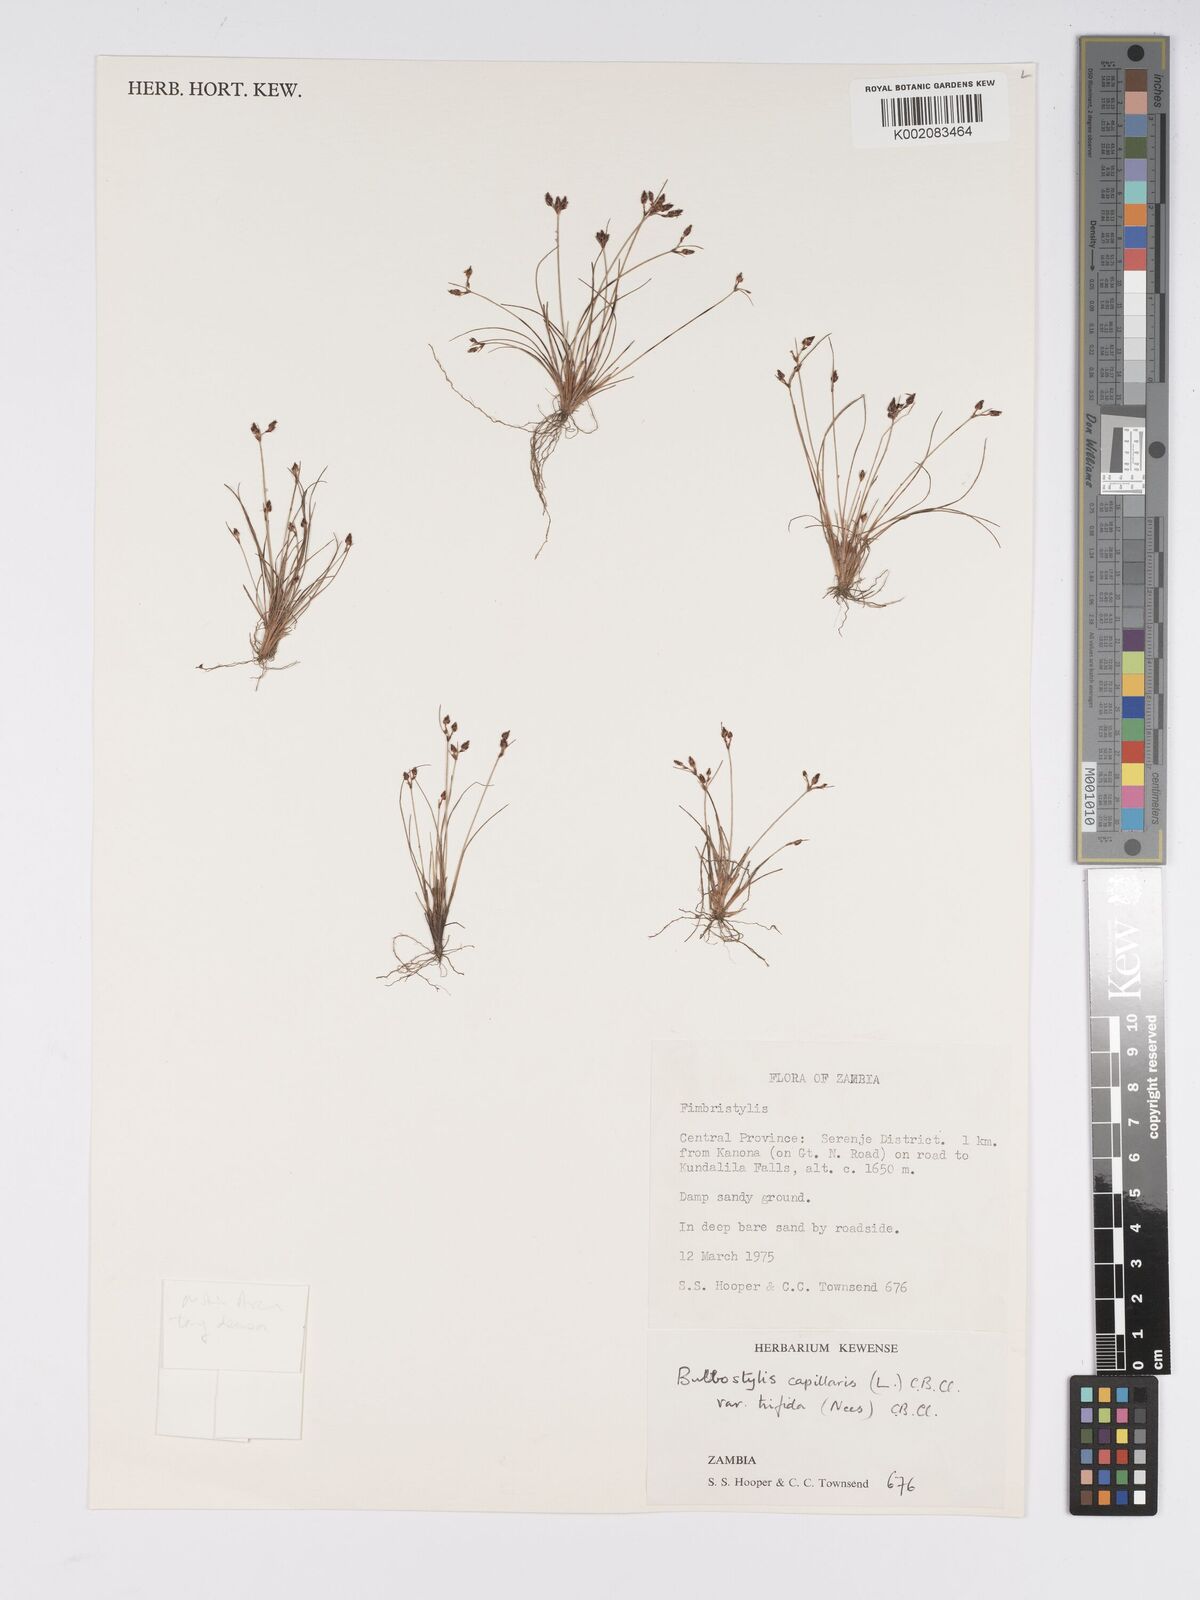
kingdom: Plantae
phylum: Tracheophyta
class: Liliopsida
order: Poales
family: Cyperaceae
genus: Bulbostylis
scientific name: Bulbostylis capillaris
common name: Densetuft hairsedge
